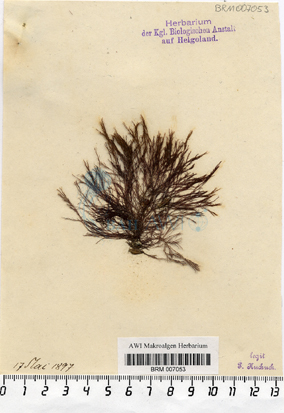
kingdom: Plantae
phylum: Rhodophyta
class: Florideophyceae
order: Ceramiales
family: Ceramiaceae
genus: Ceramium
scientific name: Ceramium deslongchampsii
